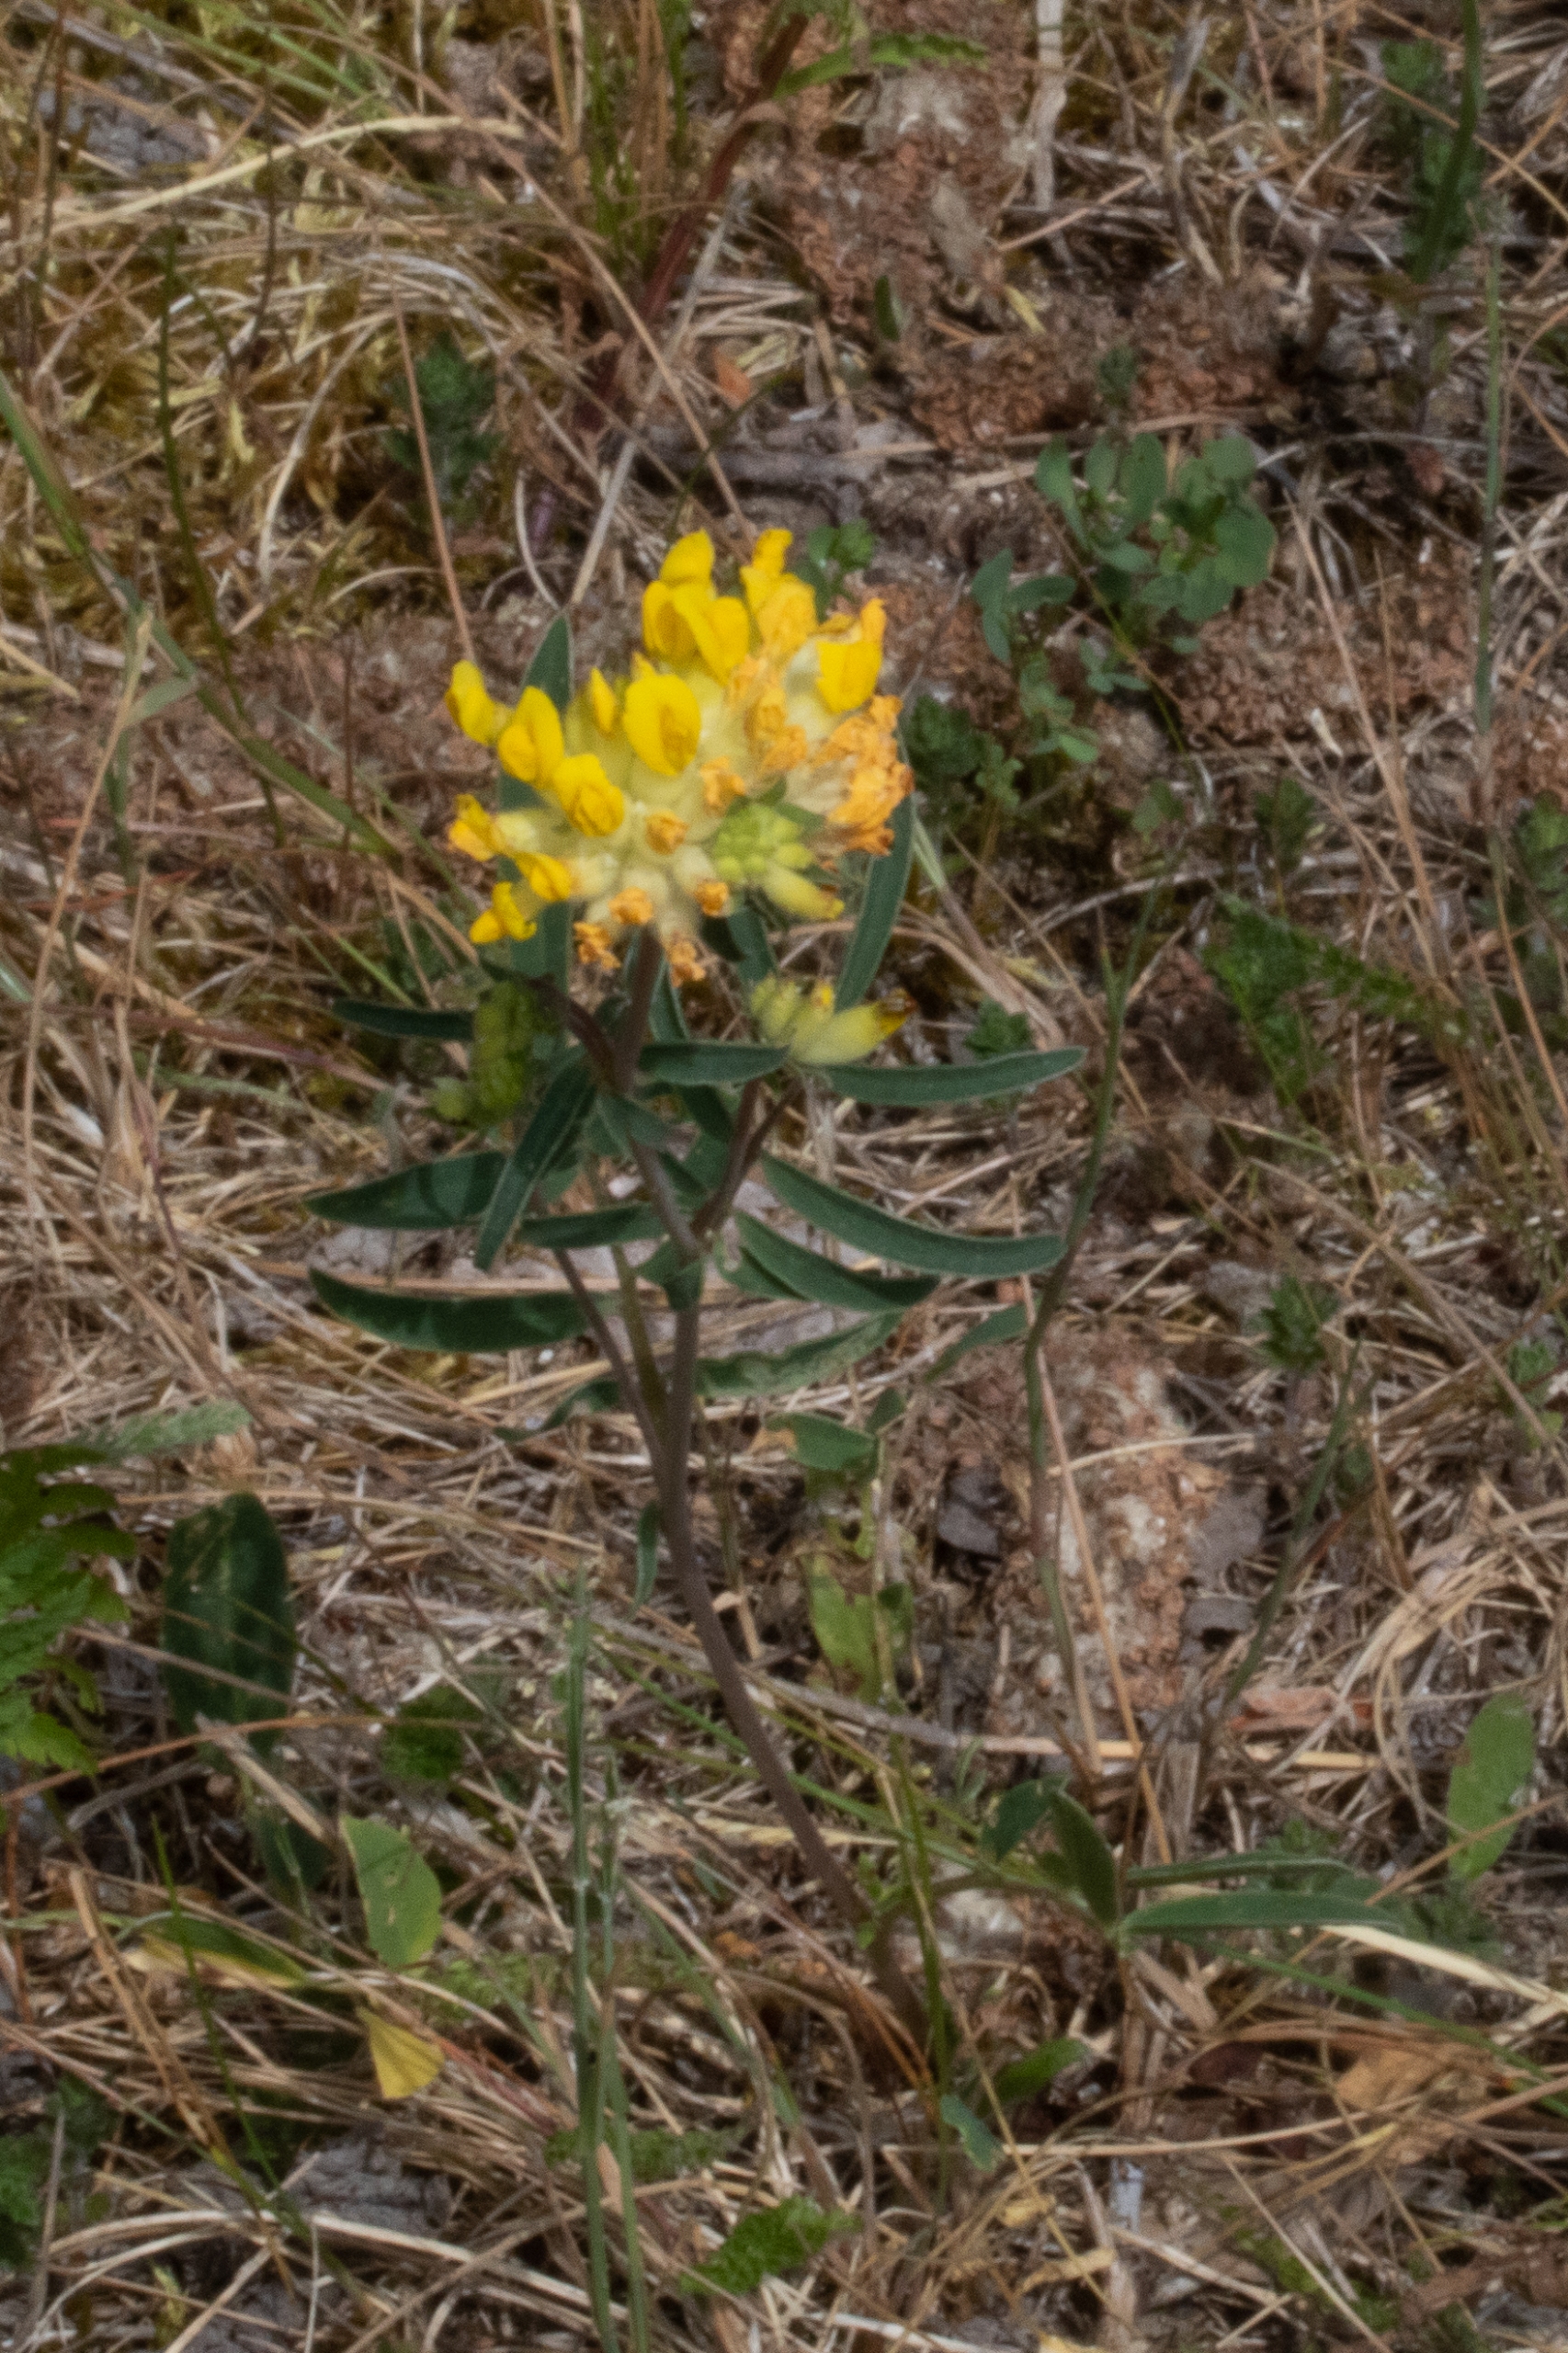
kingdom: Plantae
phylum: Tracheophyta
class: Magnoliopsida
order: Fabales
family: Fabaceae
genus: Anthyllis
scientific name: Anthyllis vulneraria
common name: Rundbælg
